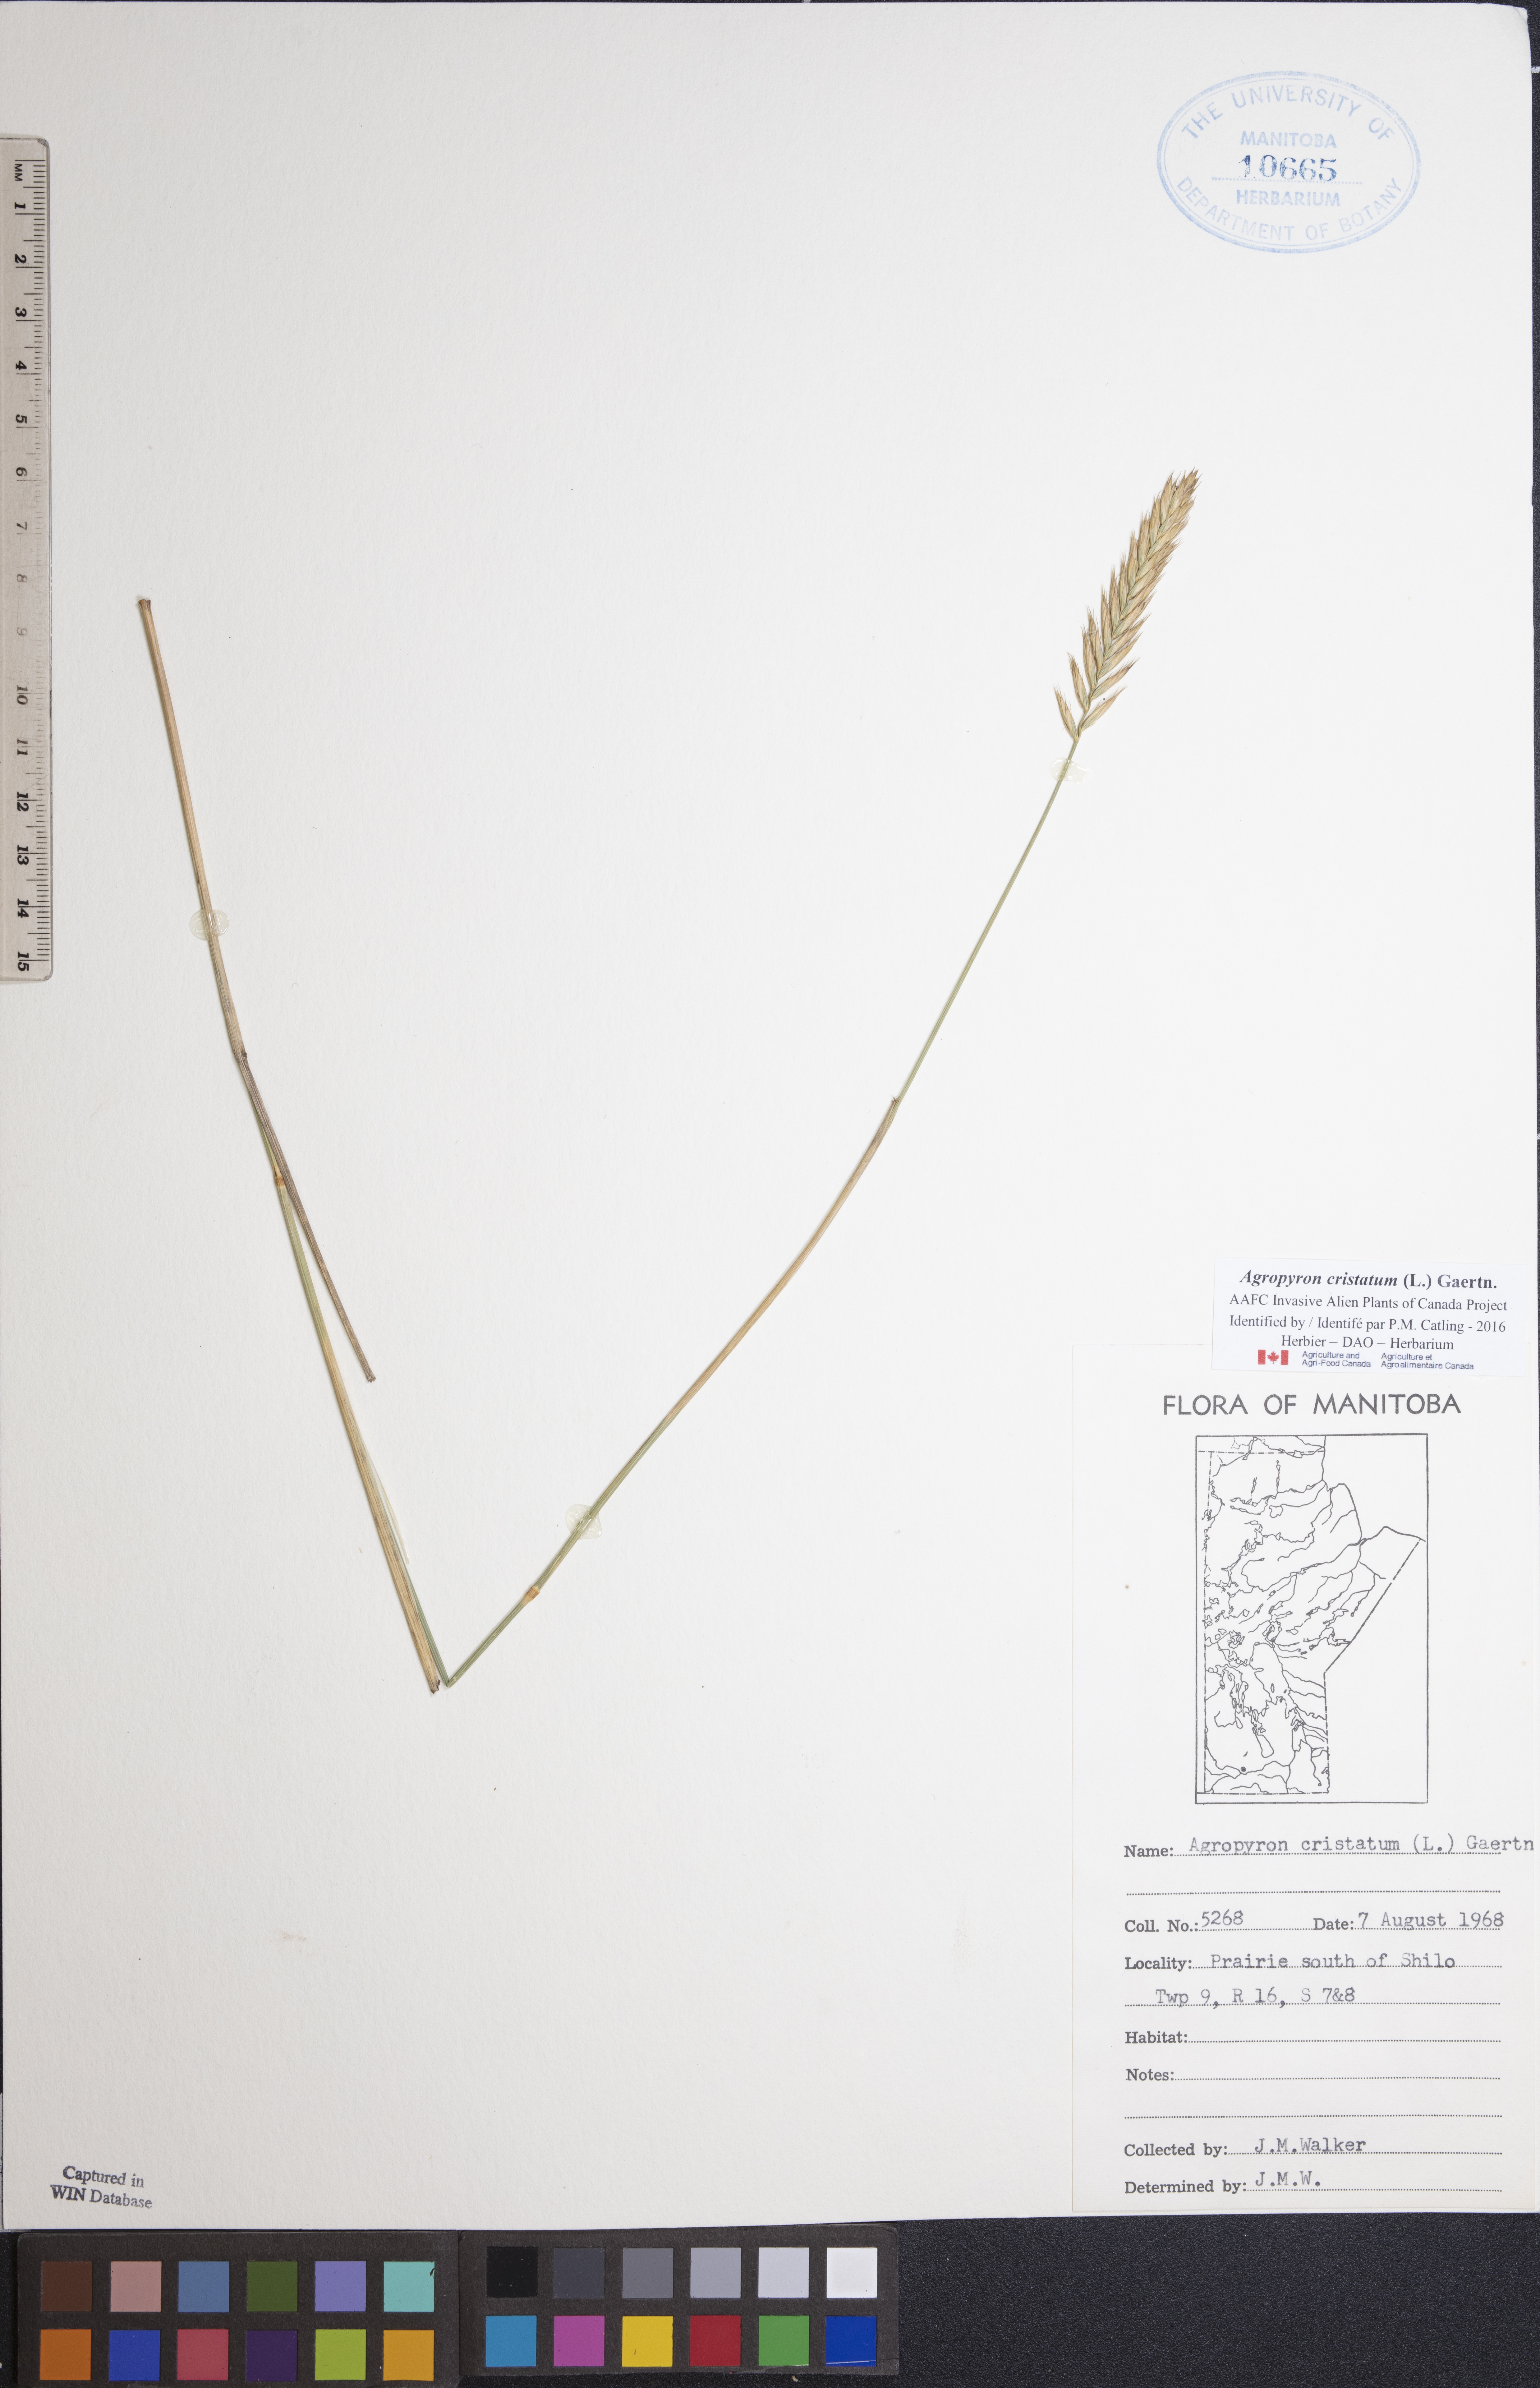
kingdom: Plantae
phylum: Tracheophyta
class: Liliopsida
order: Poales
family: Poaceae
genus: Agropyron
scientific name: Agropyron cristatum
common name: Crested wheatgrass
